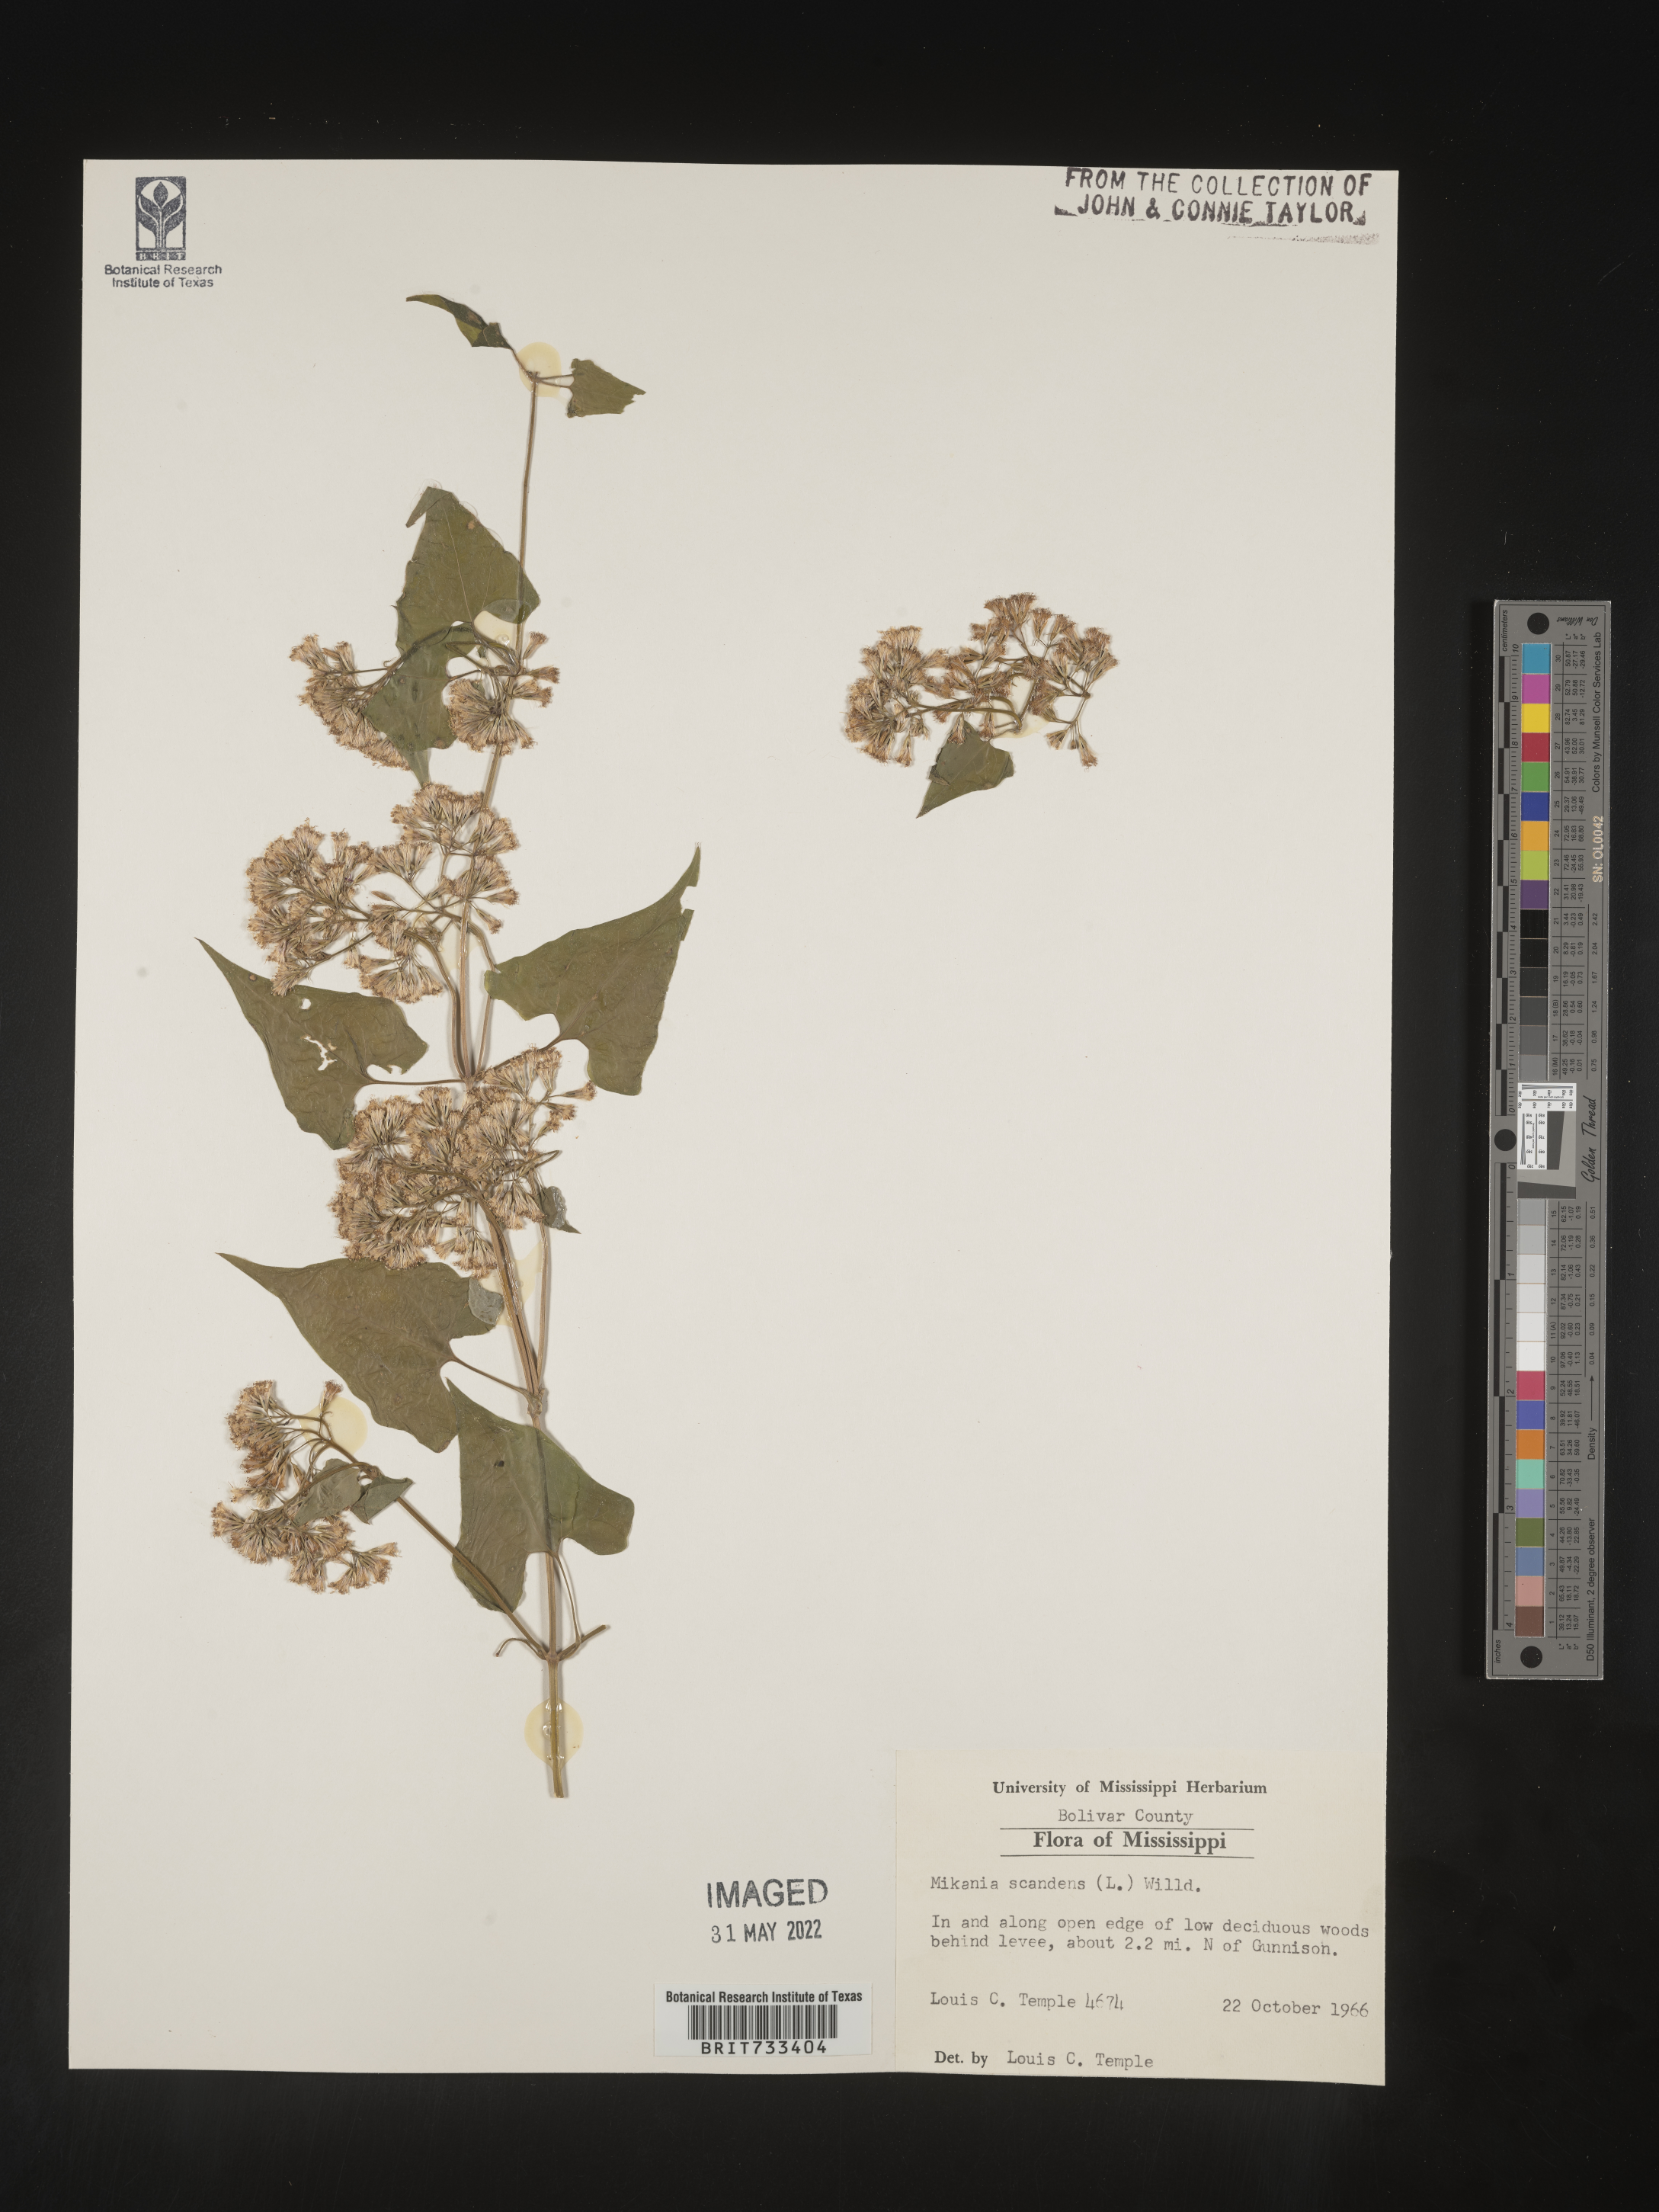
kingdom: Plantae
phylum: Tracheophyta
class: Magnoliopsida
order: Asterales
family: Asteraceae
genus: Mikania
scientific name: Mikania scandens
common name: Climbing hempvine
